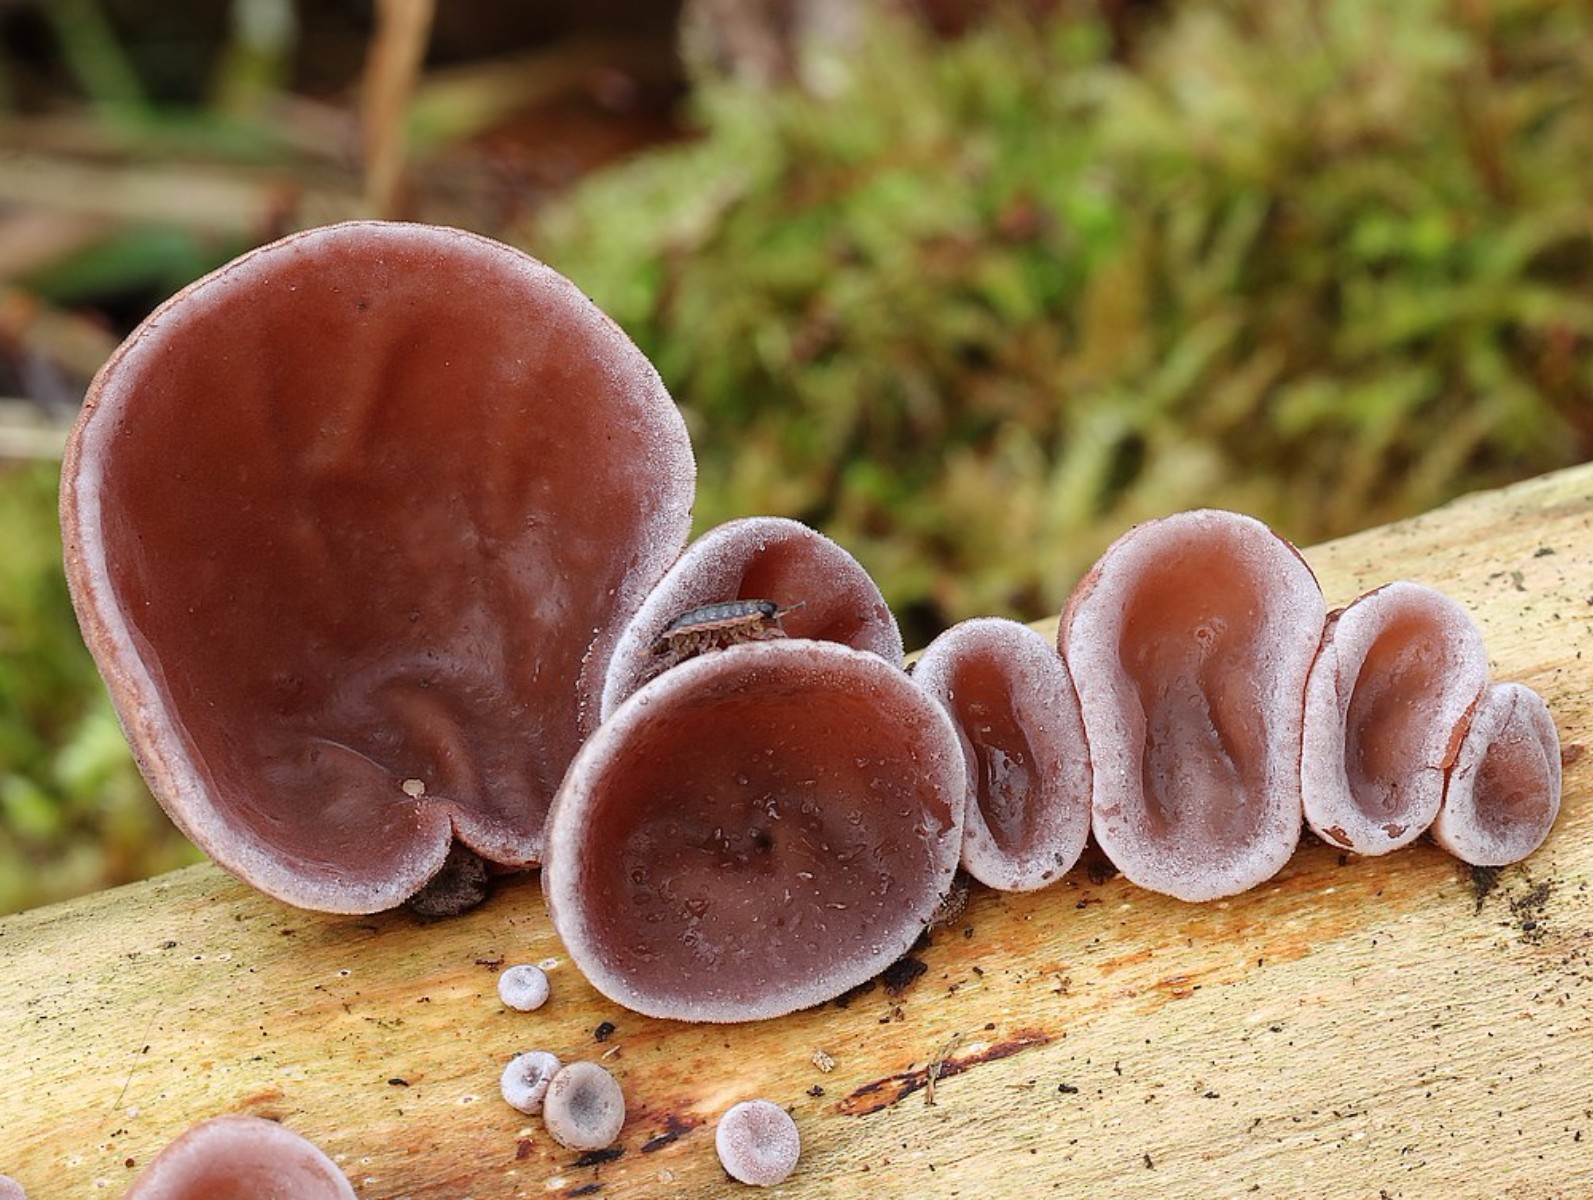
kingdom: Fungi
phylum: Basidiomycota
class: Agaricomycetes
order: Auriculariales
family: Auriculariaceae
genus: Auricularia
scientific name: Auricularia auricula-judae
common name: almindelig judasøre
